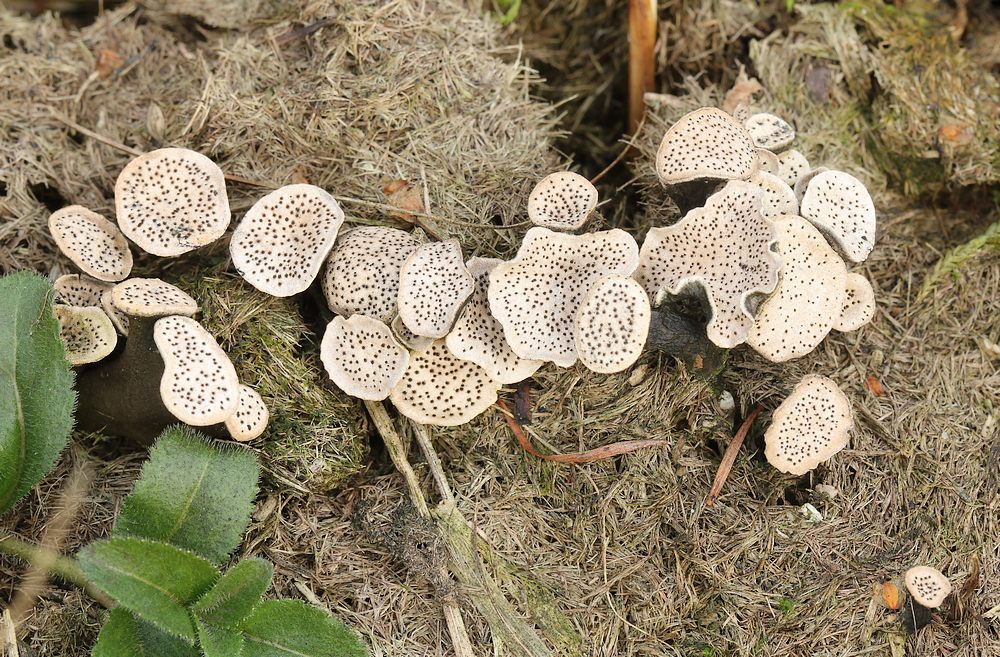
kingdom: Fungi
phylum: Ascomycota
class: Sordariomycetes
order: Xylariales
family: Xylariaceae
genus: Poronia
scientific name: Poronia punctata
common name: stor priksvamp
